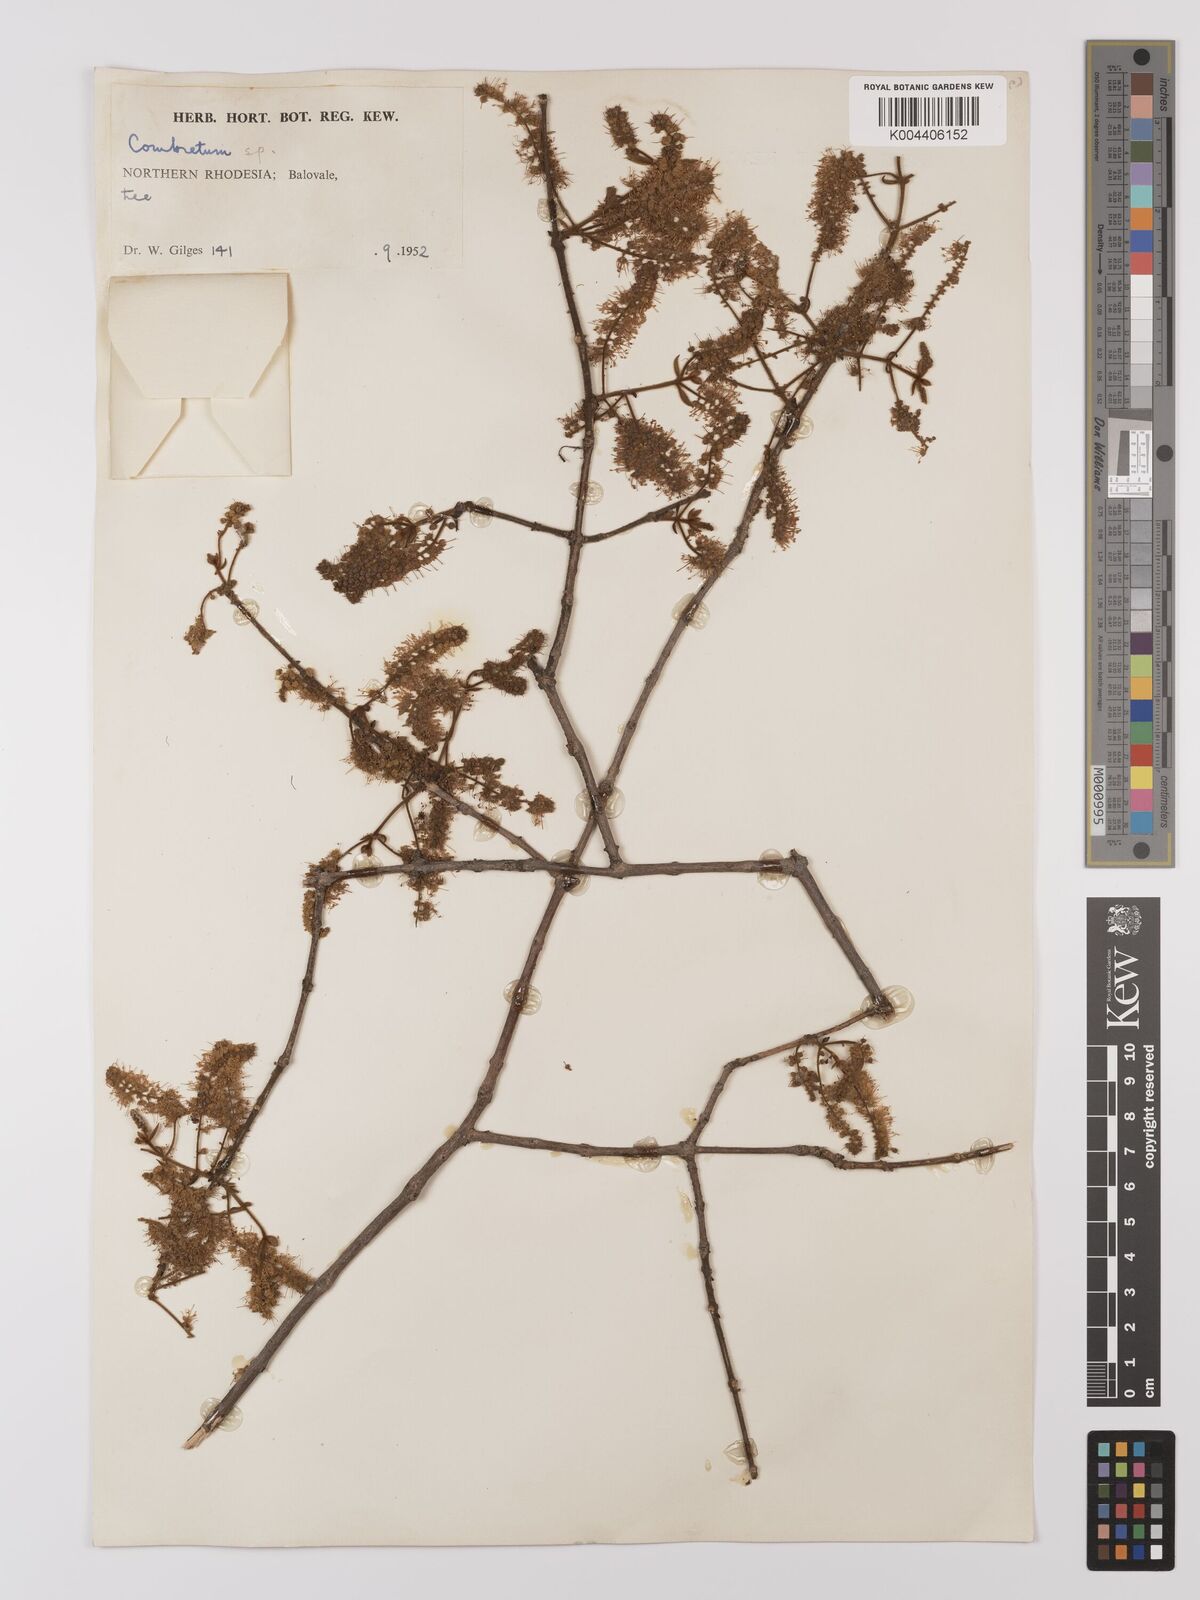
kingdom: Plantae
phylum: Tracheophyta
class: Magnoliopsida
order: Myrtales
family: Combretaceae
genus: Combretum
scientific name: Combretum
